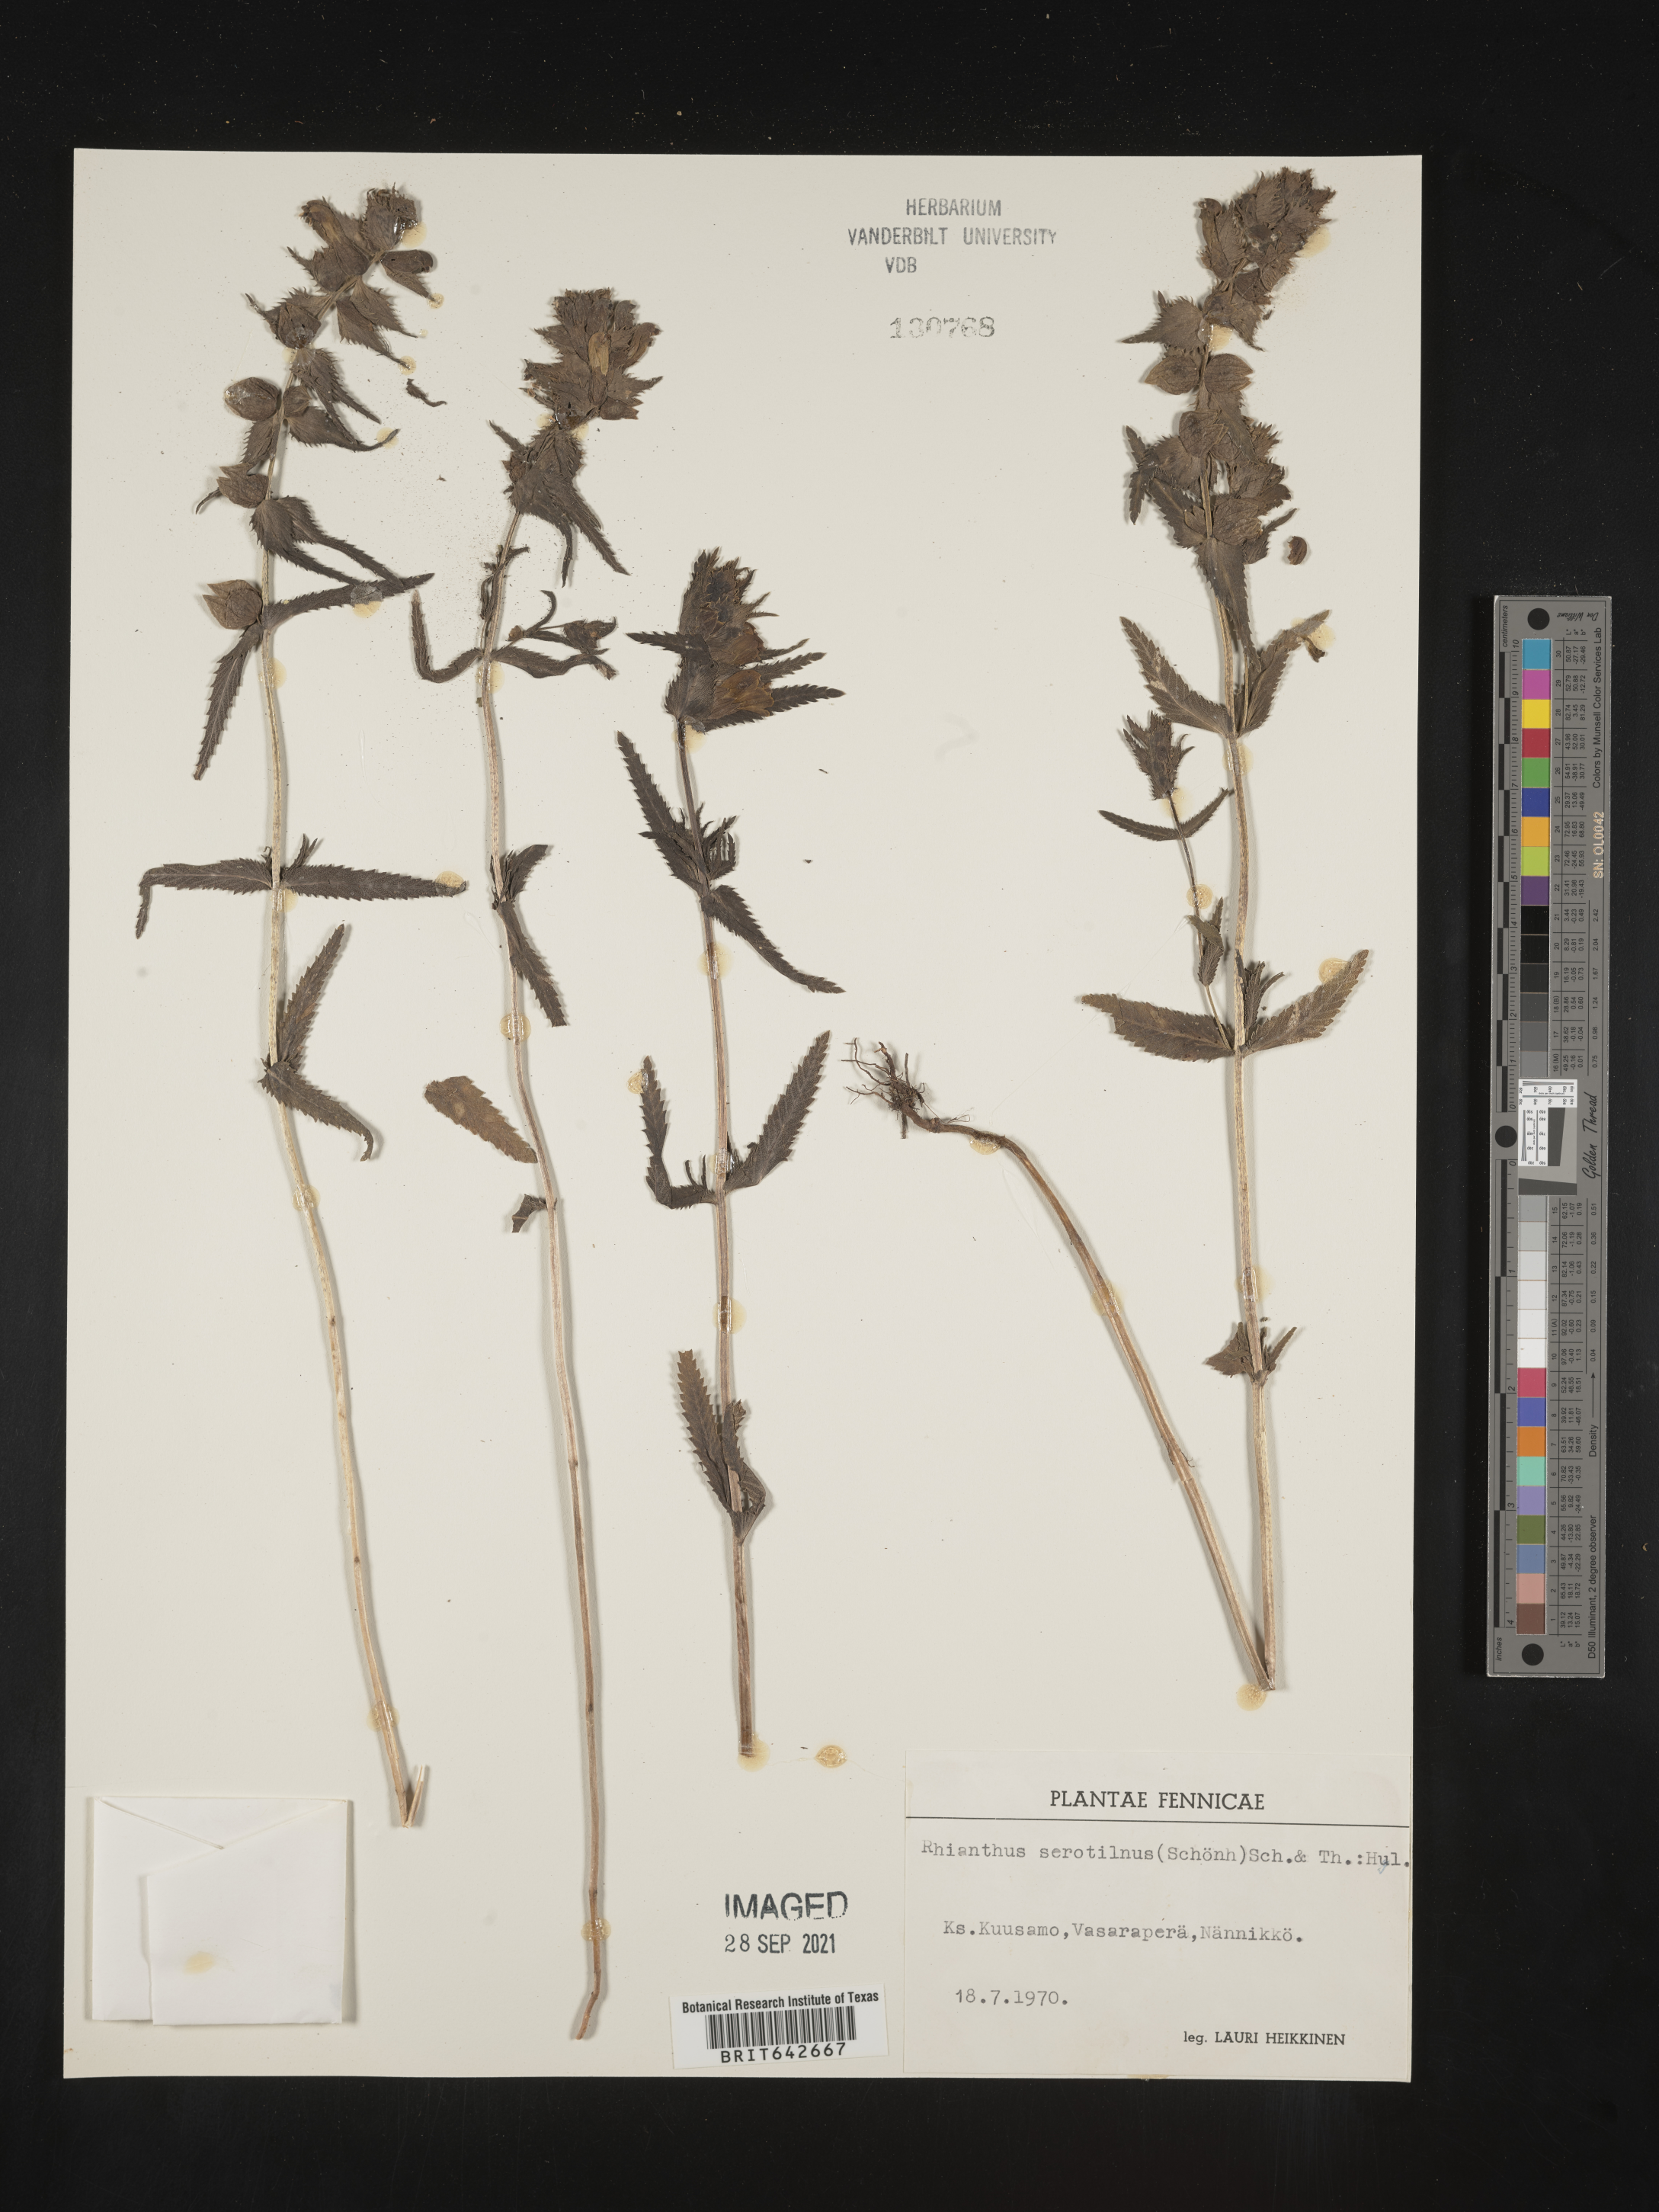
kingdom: Plantae
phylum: Tracheophyta
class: Magnoliopsida
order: Lamiales
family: Orobanchaceae
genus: Rhinanthus
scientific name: Rhinanthus
